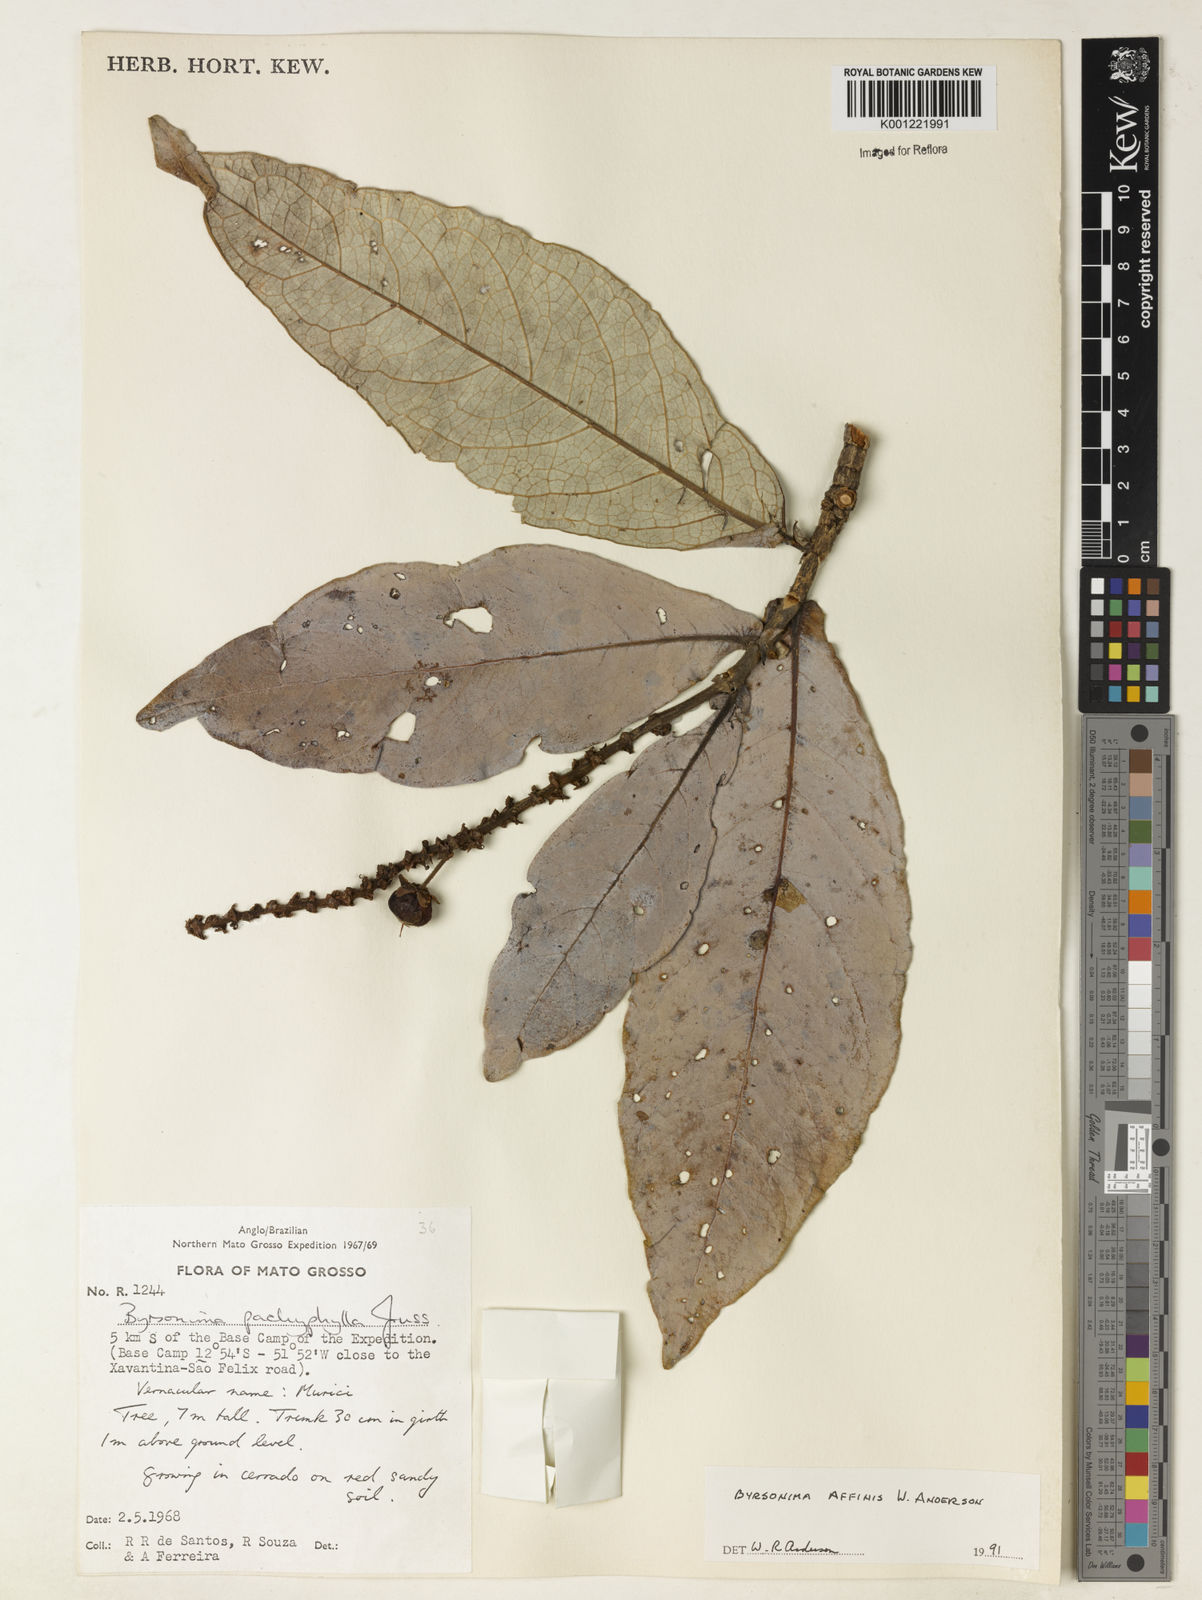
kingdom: Plantae
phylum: Tracheophyta
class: Magnoliopsida
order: Malpighiales
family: Malpighiaceae
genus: Byrsonima
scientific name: Byrsonima affinis
